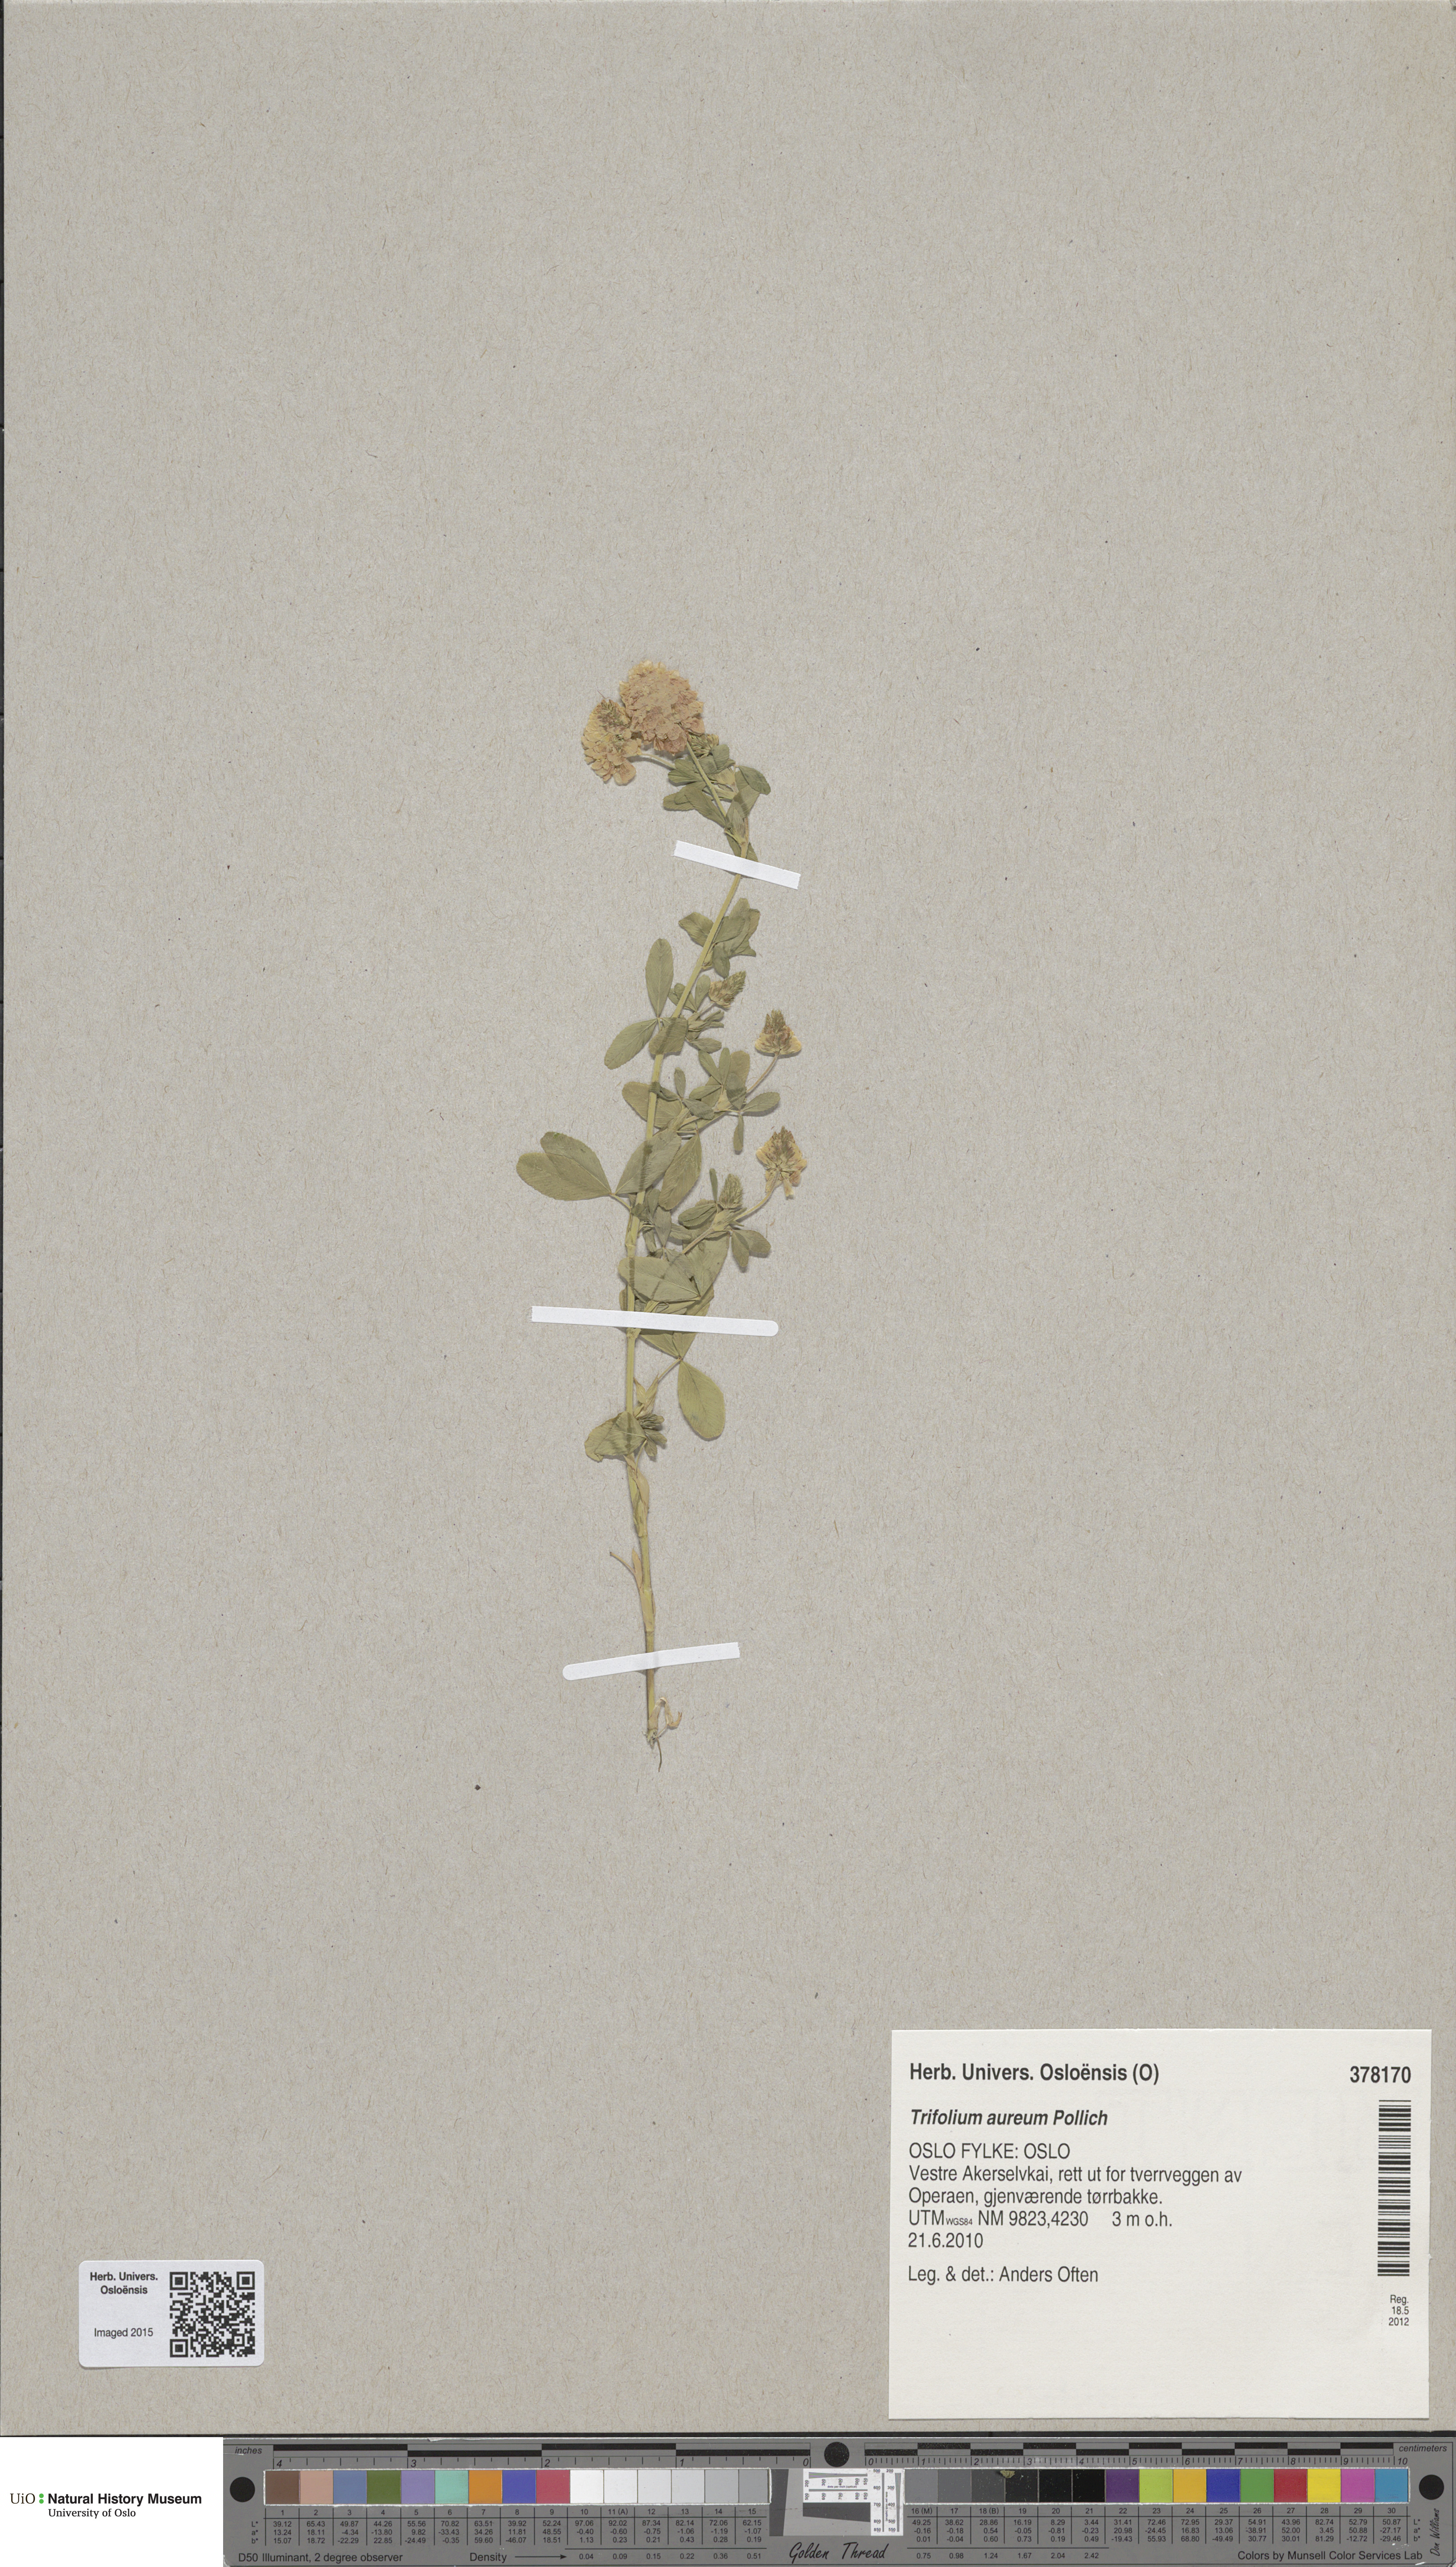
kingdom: Plantae
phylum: Tracheophyta
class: Magnoliopsida
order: Fabales
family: Fabaceae
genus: Trifolium
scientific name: Trifolium aureum
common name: Golden clover
